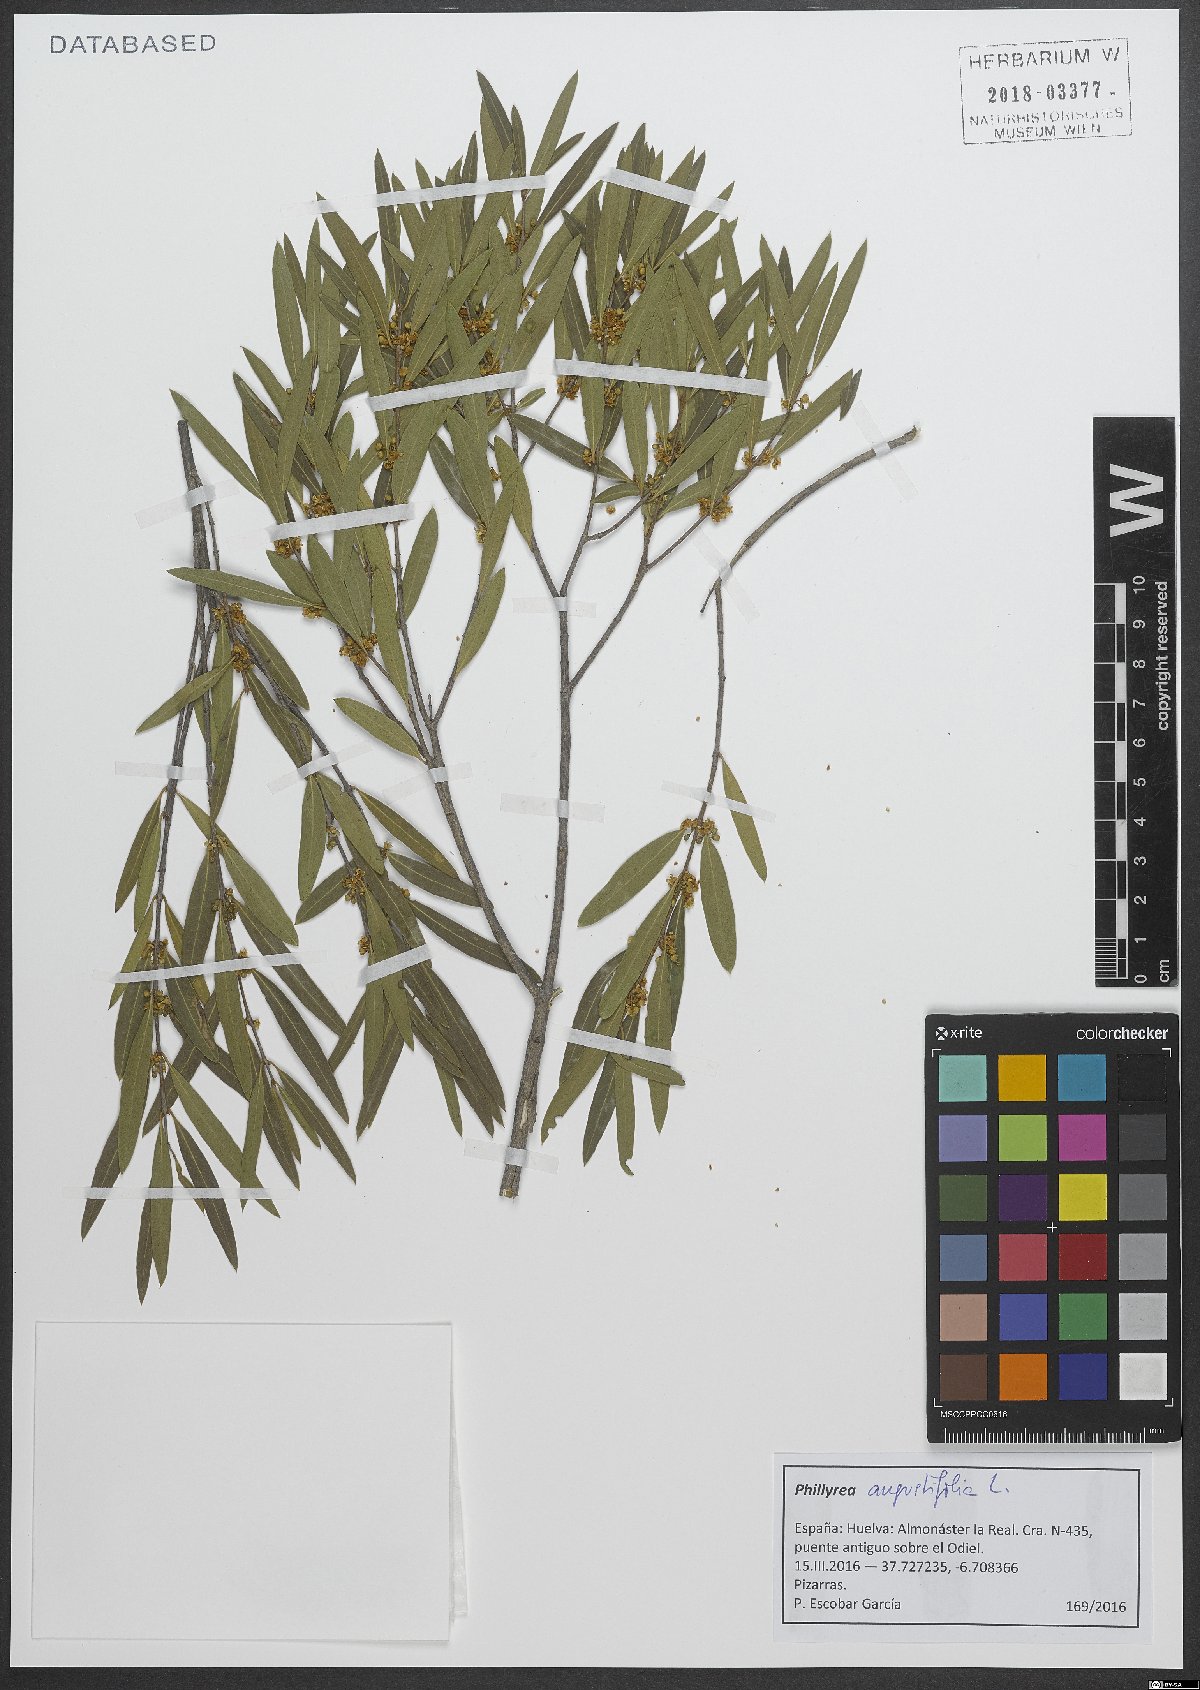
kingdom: Plantae
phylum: Tracheophyta
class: Magnoliopsida
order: Lamiales
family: Oleaceae
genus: Phillyrea
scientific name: Phillyrea angustifolia
